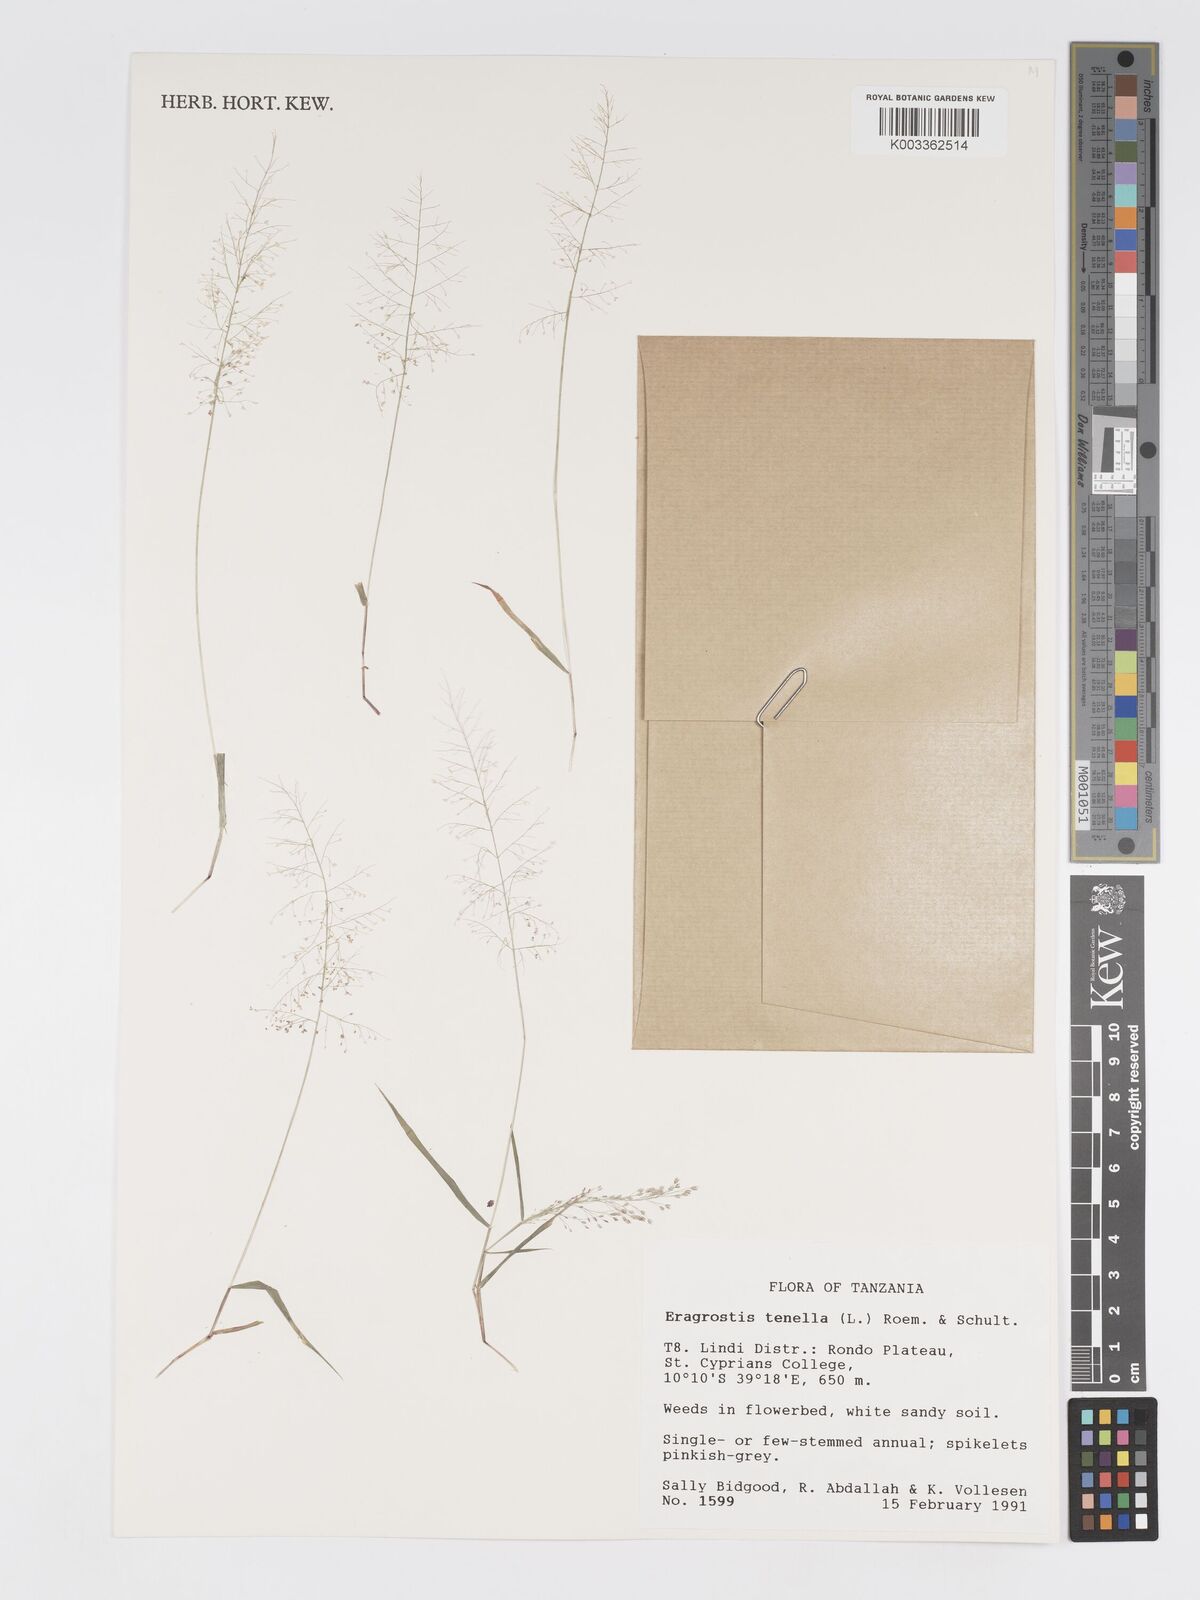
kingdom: Plantae
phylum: Tracheophyta
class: Liliopsida
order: Poales
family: Poaceae
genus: Eragrostis
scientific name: Eragrostis tenella
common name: Japanese lovegrass
